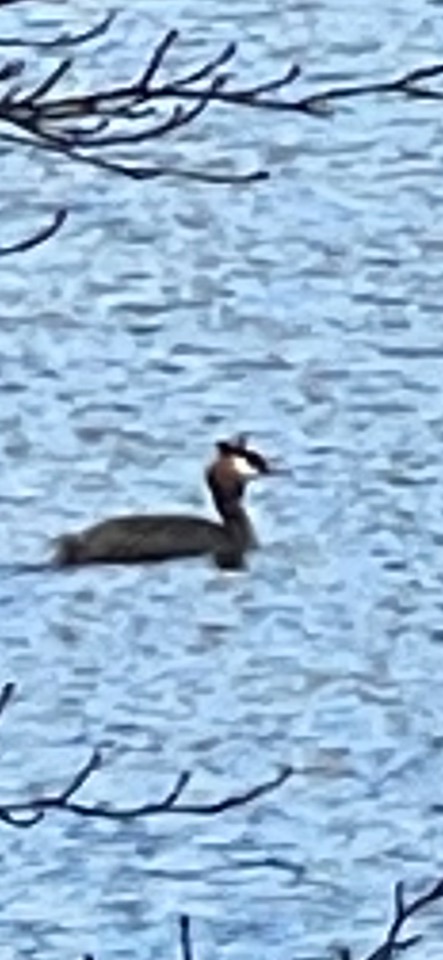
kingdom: Animalia
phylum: Chordata
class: Aves
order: Podicipediformes
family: Podicipedidae
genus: Podiceps
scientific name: Podiceps cristatus
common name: Toppet lappedykker
